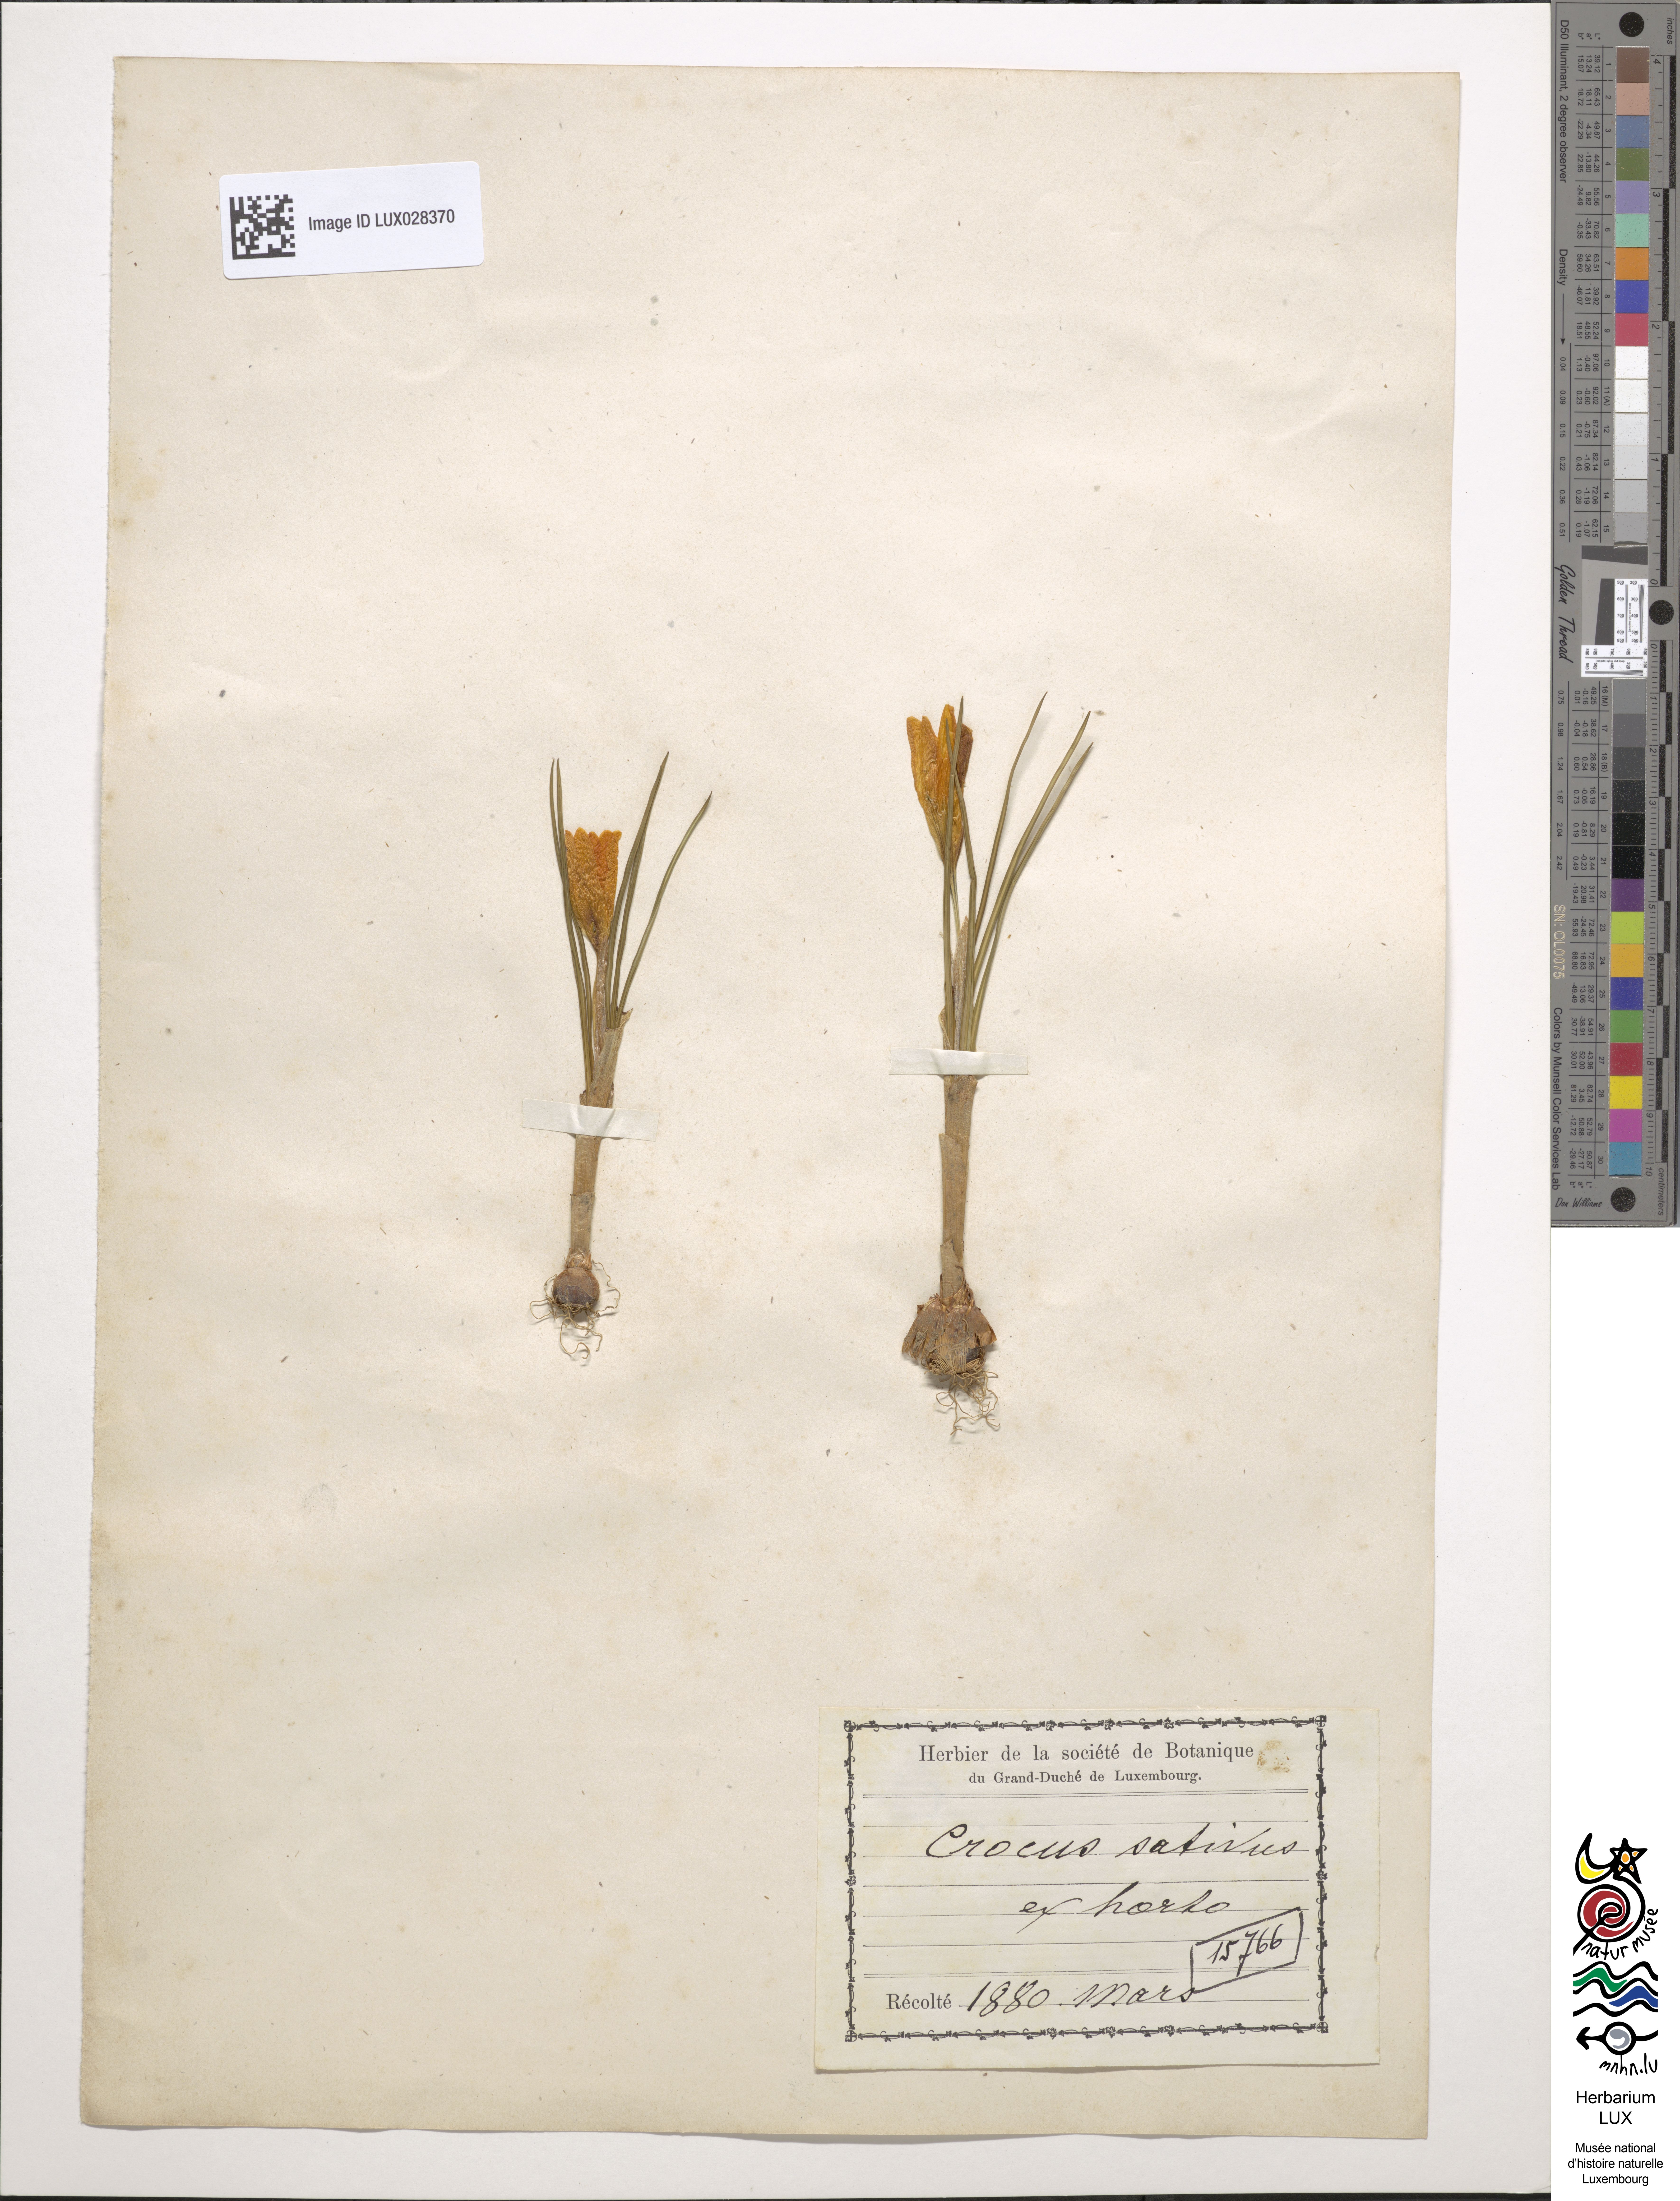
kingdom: Plantae
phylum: Tracheophyta
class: Liliopsida
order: Asparagales
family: Iridaceae
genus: Crocus
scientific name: Crocus sativus
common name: Saffron crocus
